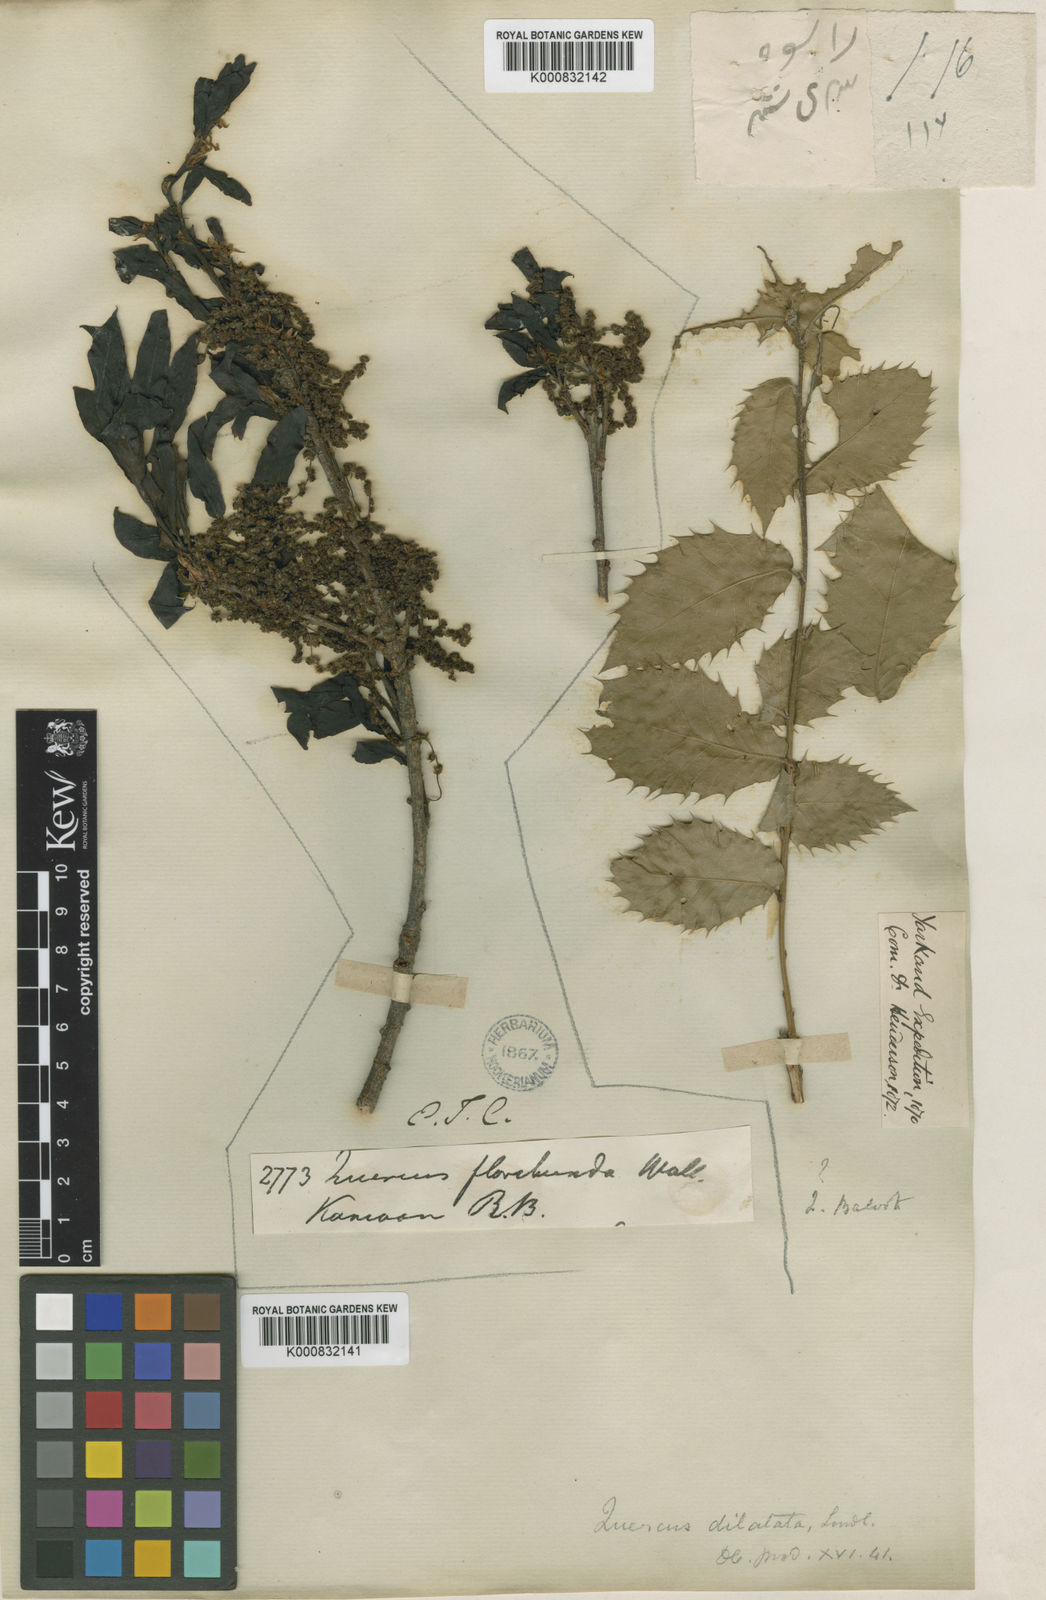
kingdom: Plantae
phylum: Tracheophyta
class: Magnoliopsida
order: Fagales
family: Fagaceae
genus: Quercus
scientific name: Quercus floribunda
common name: Moru
